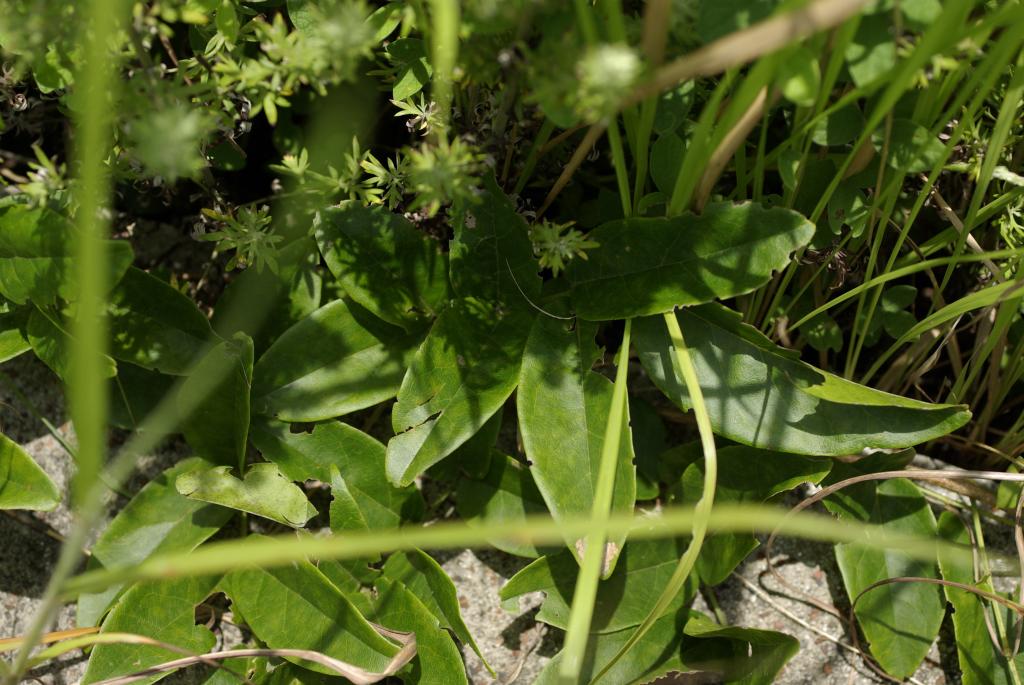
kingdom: Plantae
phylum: Tracheophyta
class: Magnoliopsida
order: Fabales
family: Fabaceae
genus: Wisteriopsis
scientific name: Wisteriopsis reticulata
